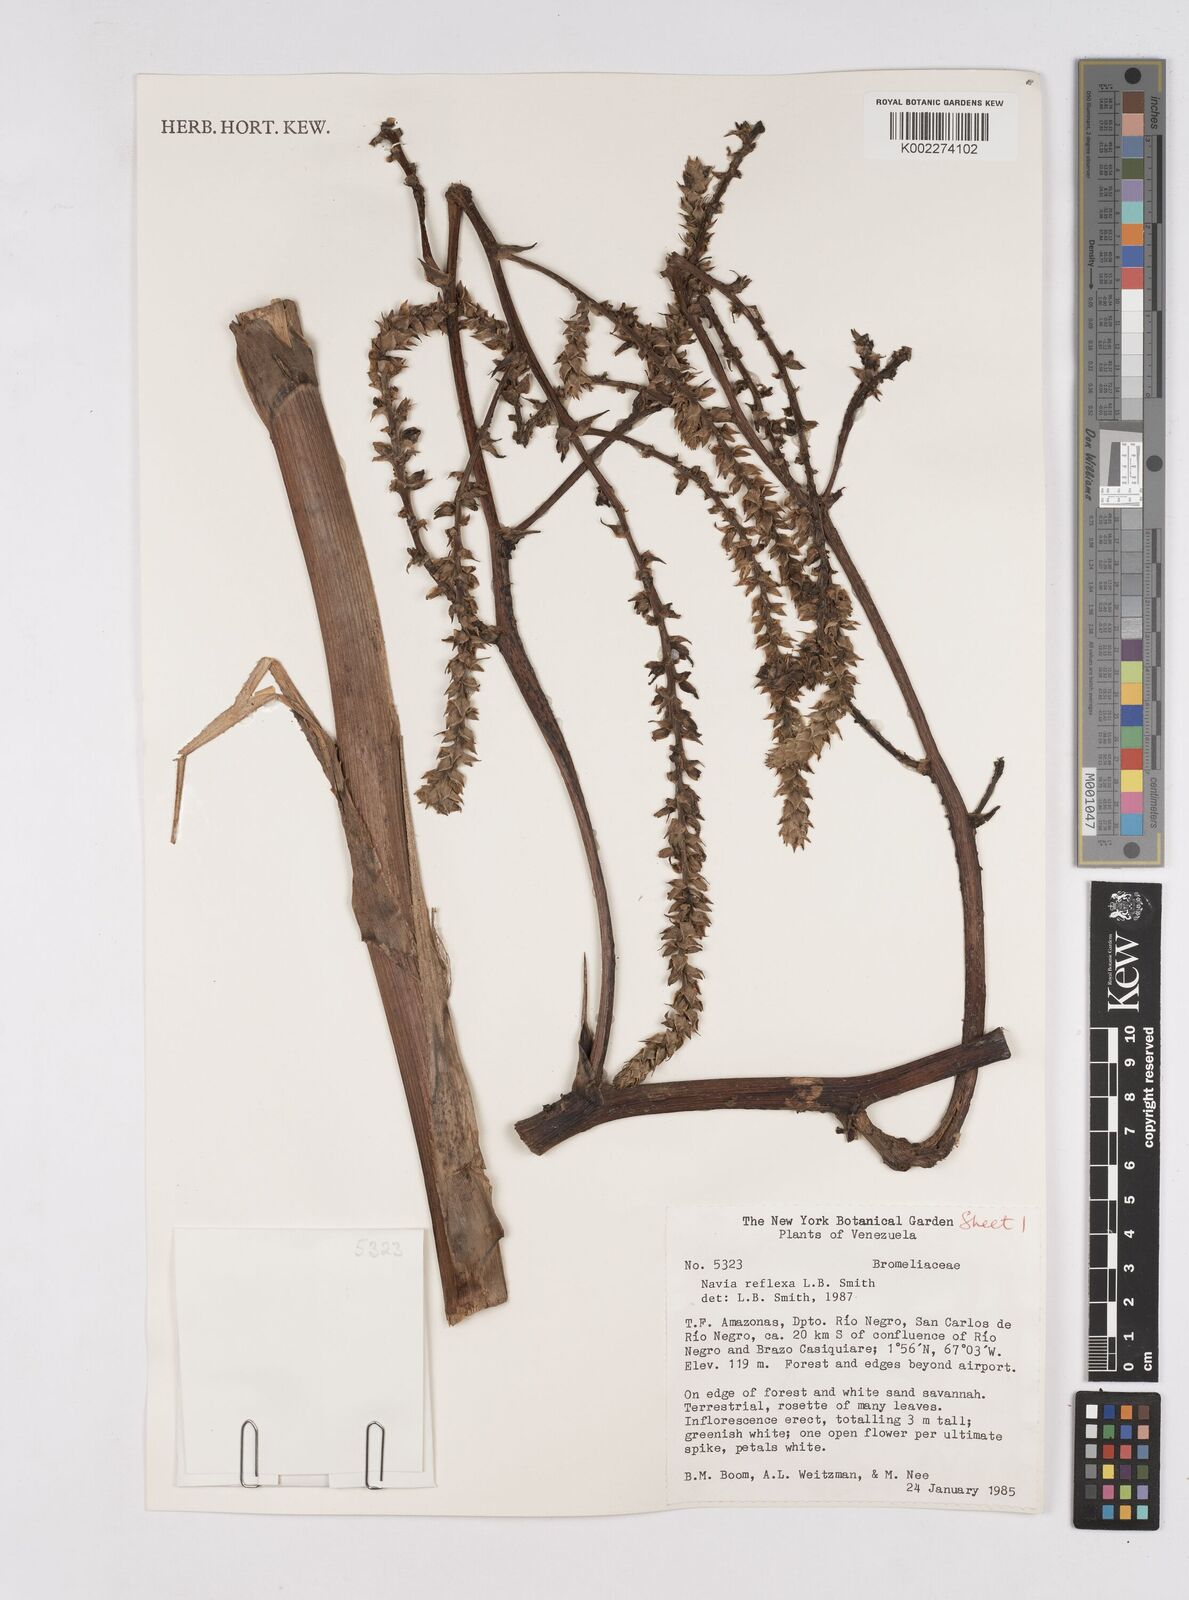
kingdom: Plantae
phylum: Tracheophyta
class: Liliopsida
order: Poales
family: Bromeliaceae
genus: Navia
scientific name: Navia reflexa
